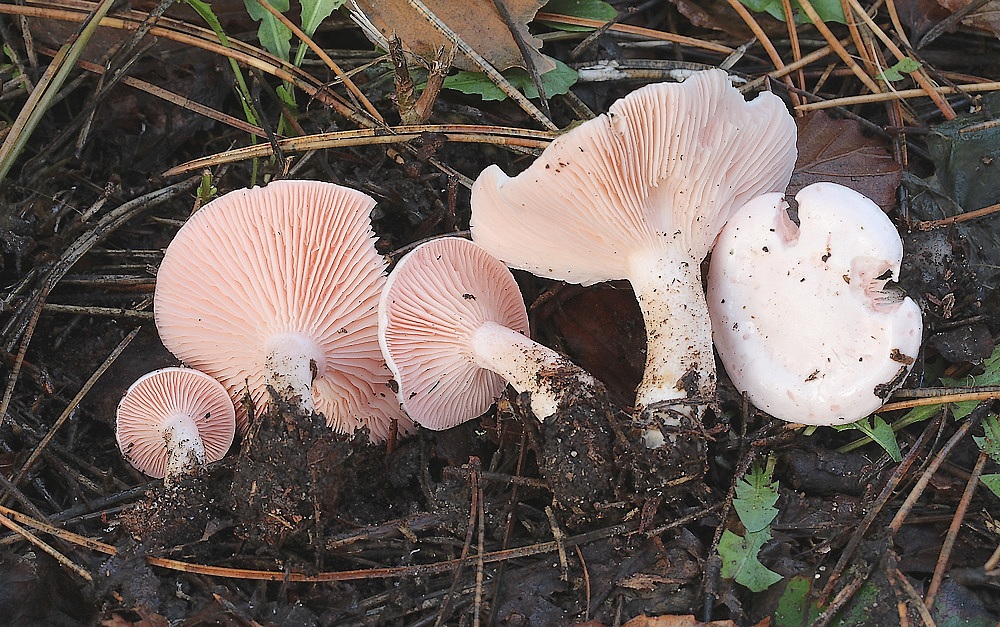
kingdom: Fungi
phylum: Basidiomycota
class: Agaricomycetes
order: Agaricales
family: Tricholomataceae
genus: Pseudoclitopilus
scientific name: Pseudoclitopilus rhodoleucus
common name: rosabladet tragtridderhat
